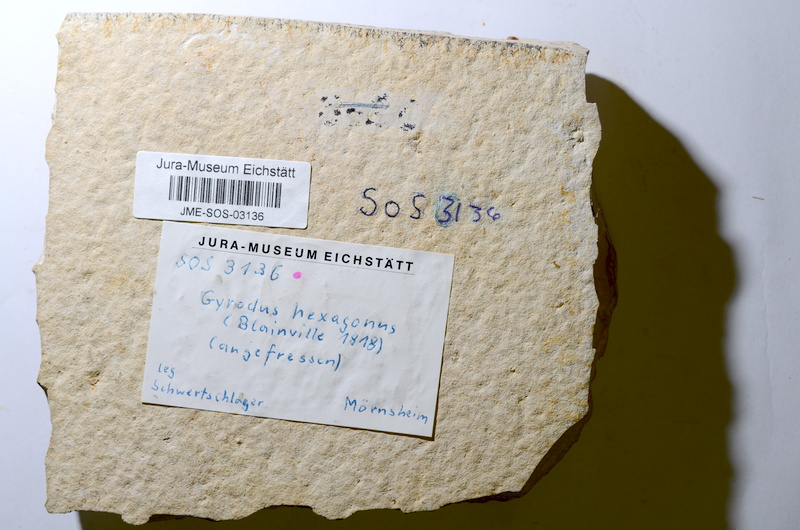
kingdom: Animalia
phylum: Chordata
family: Gyrodontidae
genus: Gyrodus
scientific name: Gyrodus hexagonus
